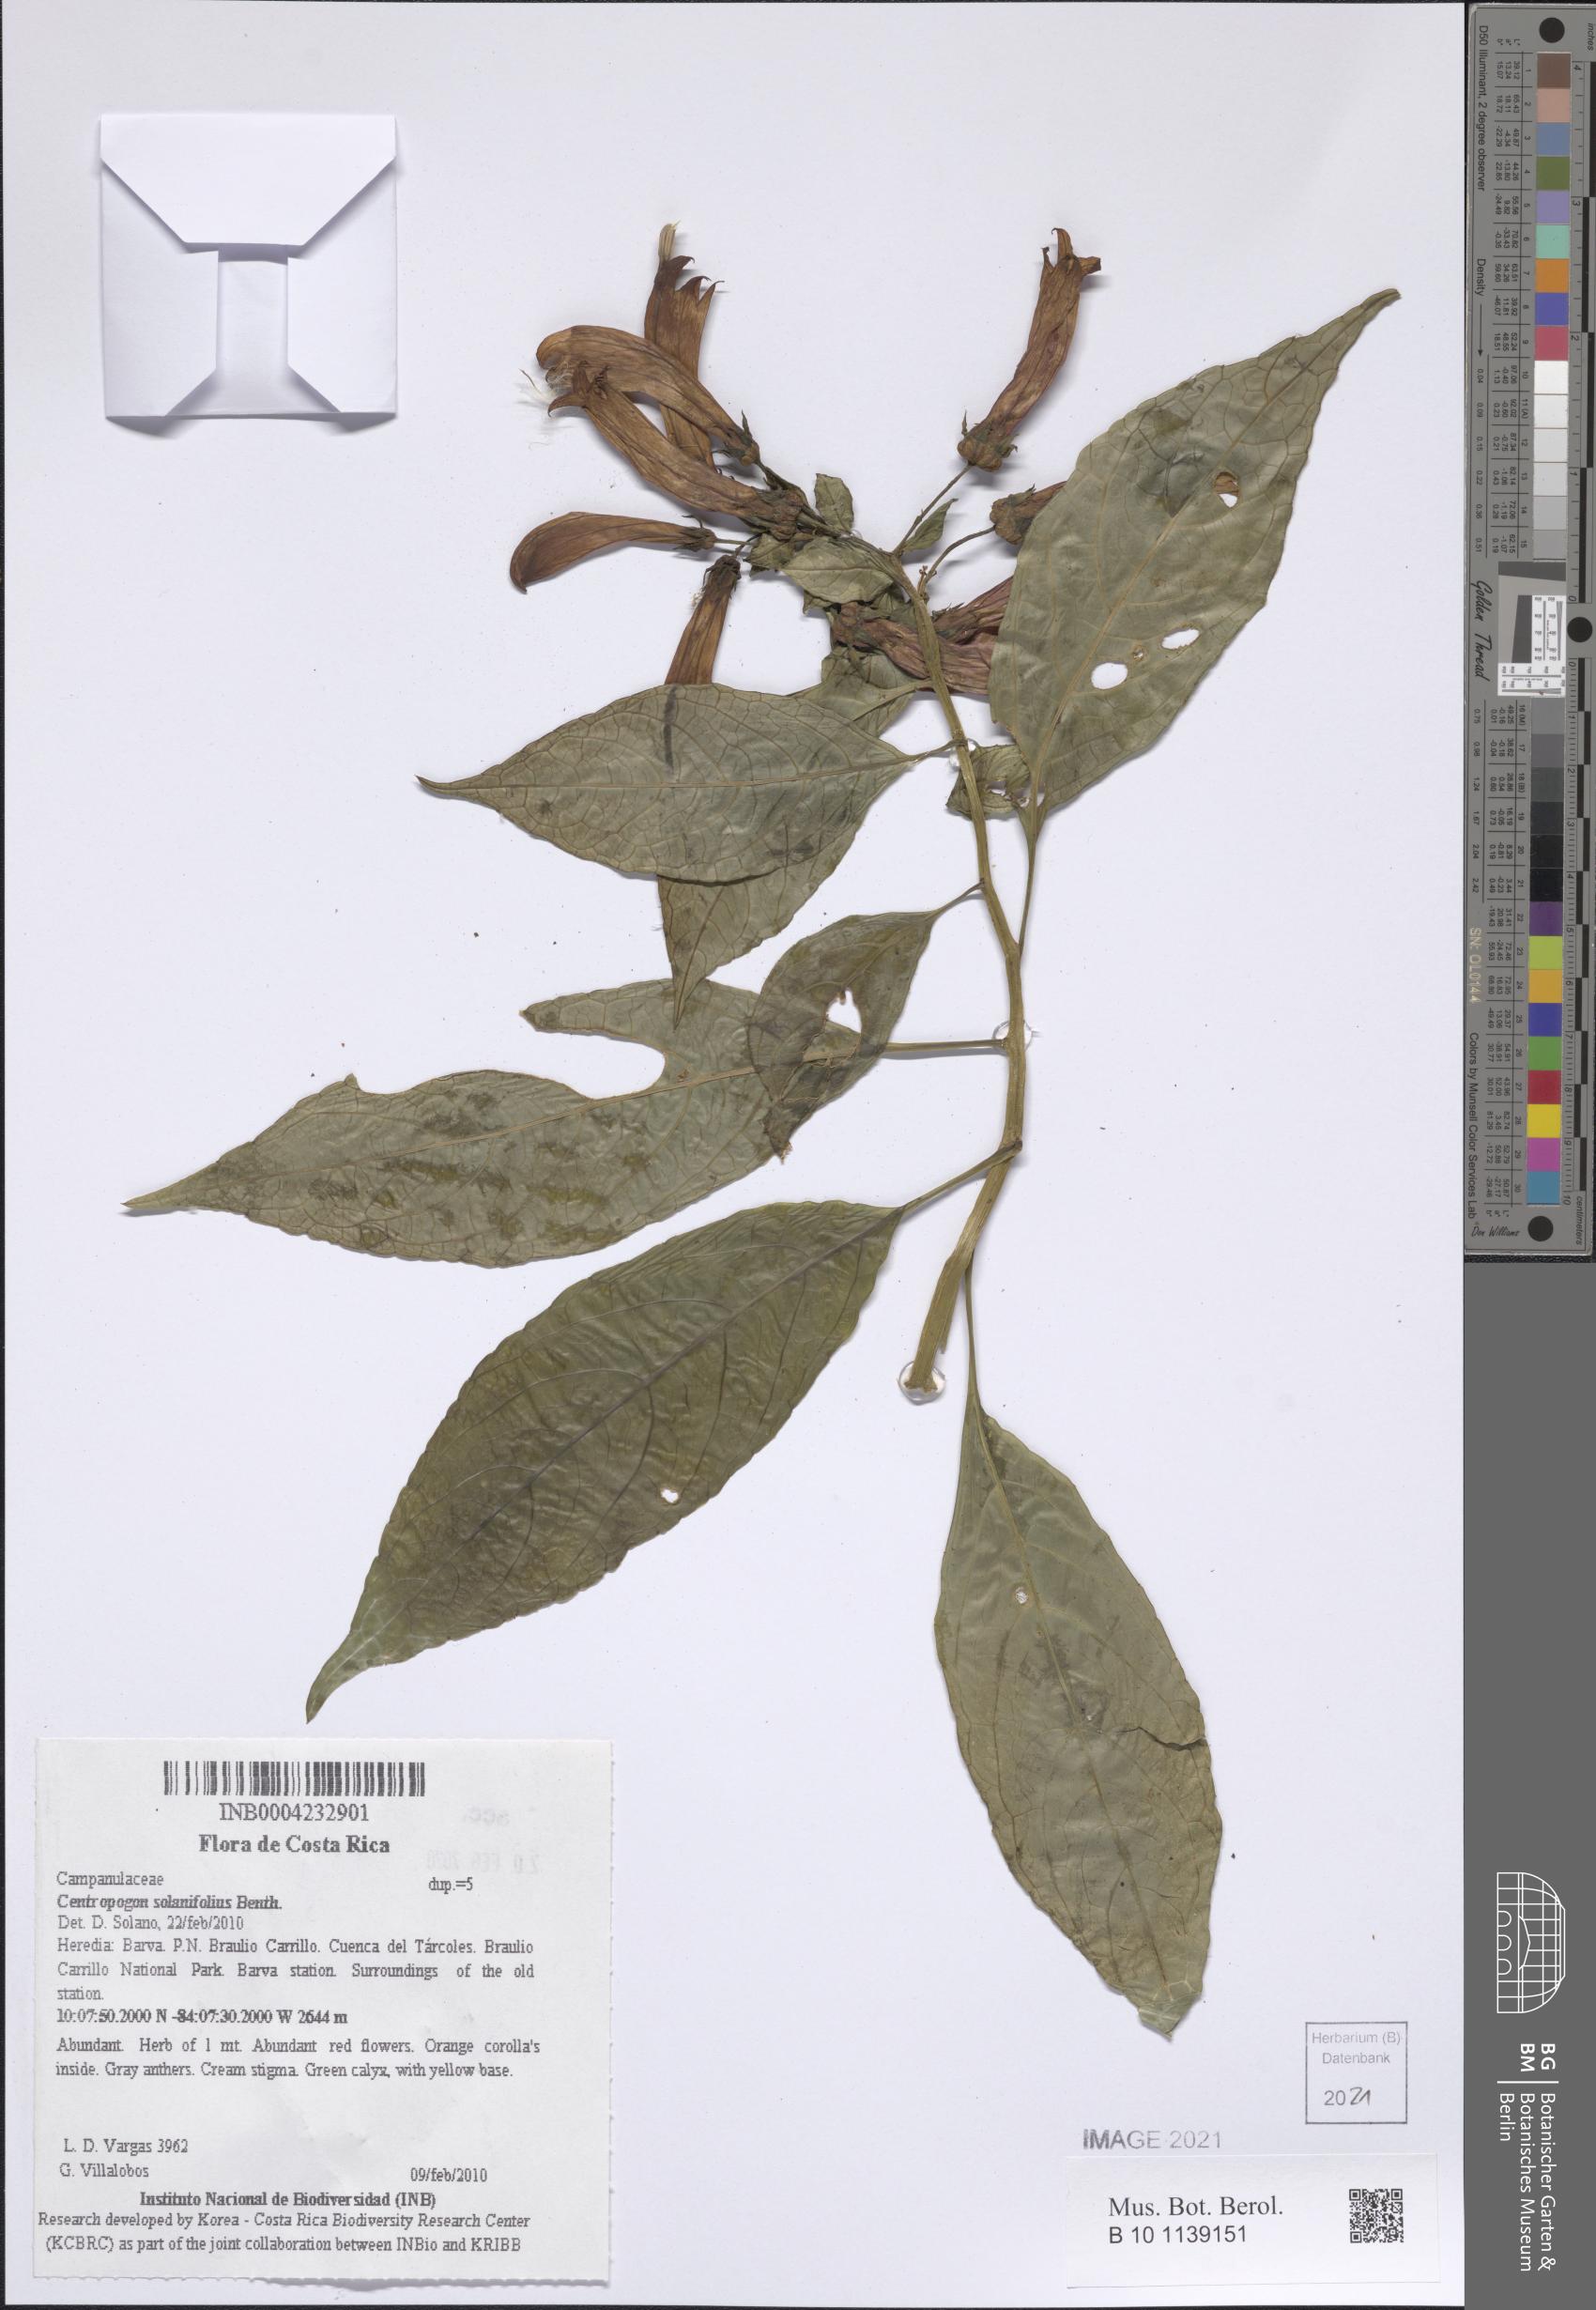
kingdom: Plantae
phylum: Tracheophyta
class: Magnoliopsida
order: Asterales
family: Campanulaceae
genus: Centropogon
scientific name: Centropogon solanifolius
